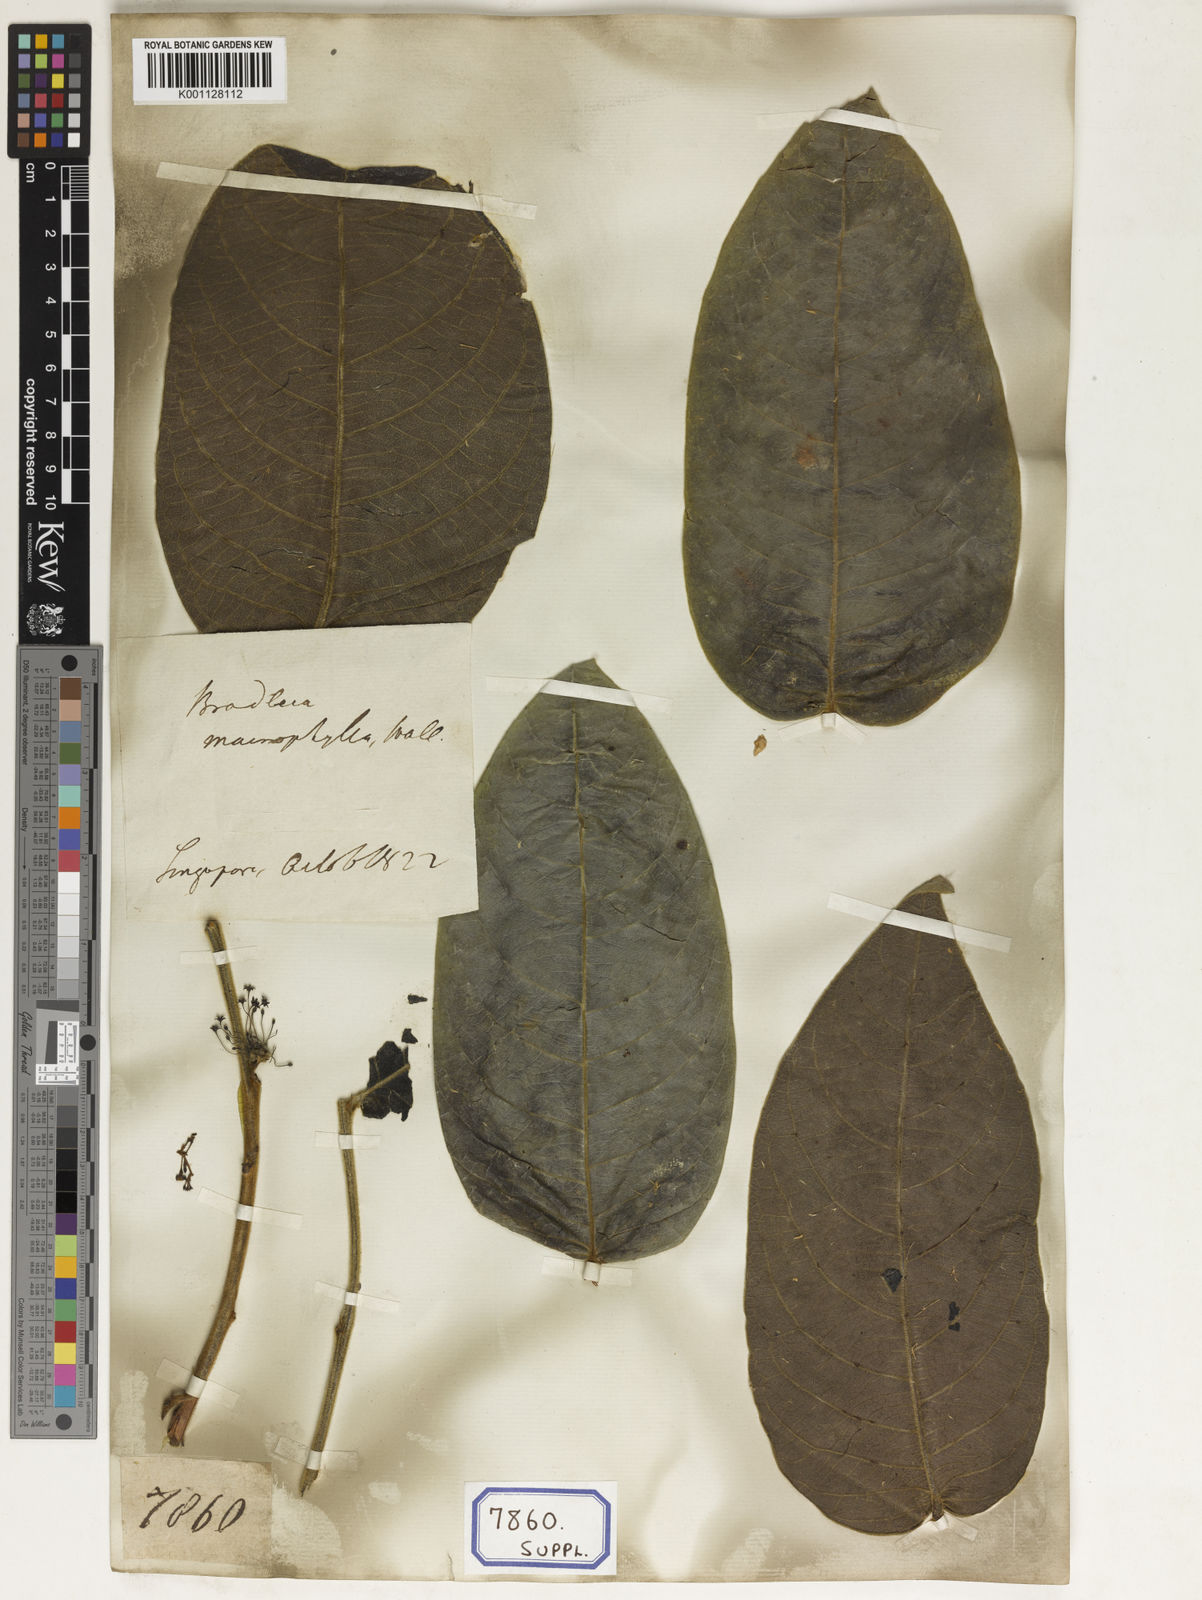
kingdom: Plantae
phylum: Tracheophyta
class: Magnoliopsida
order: Malpighiales
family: Euphorbiaceae
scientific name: Euphorbiaceae
